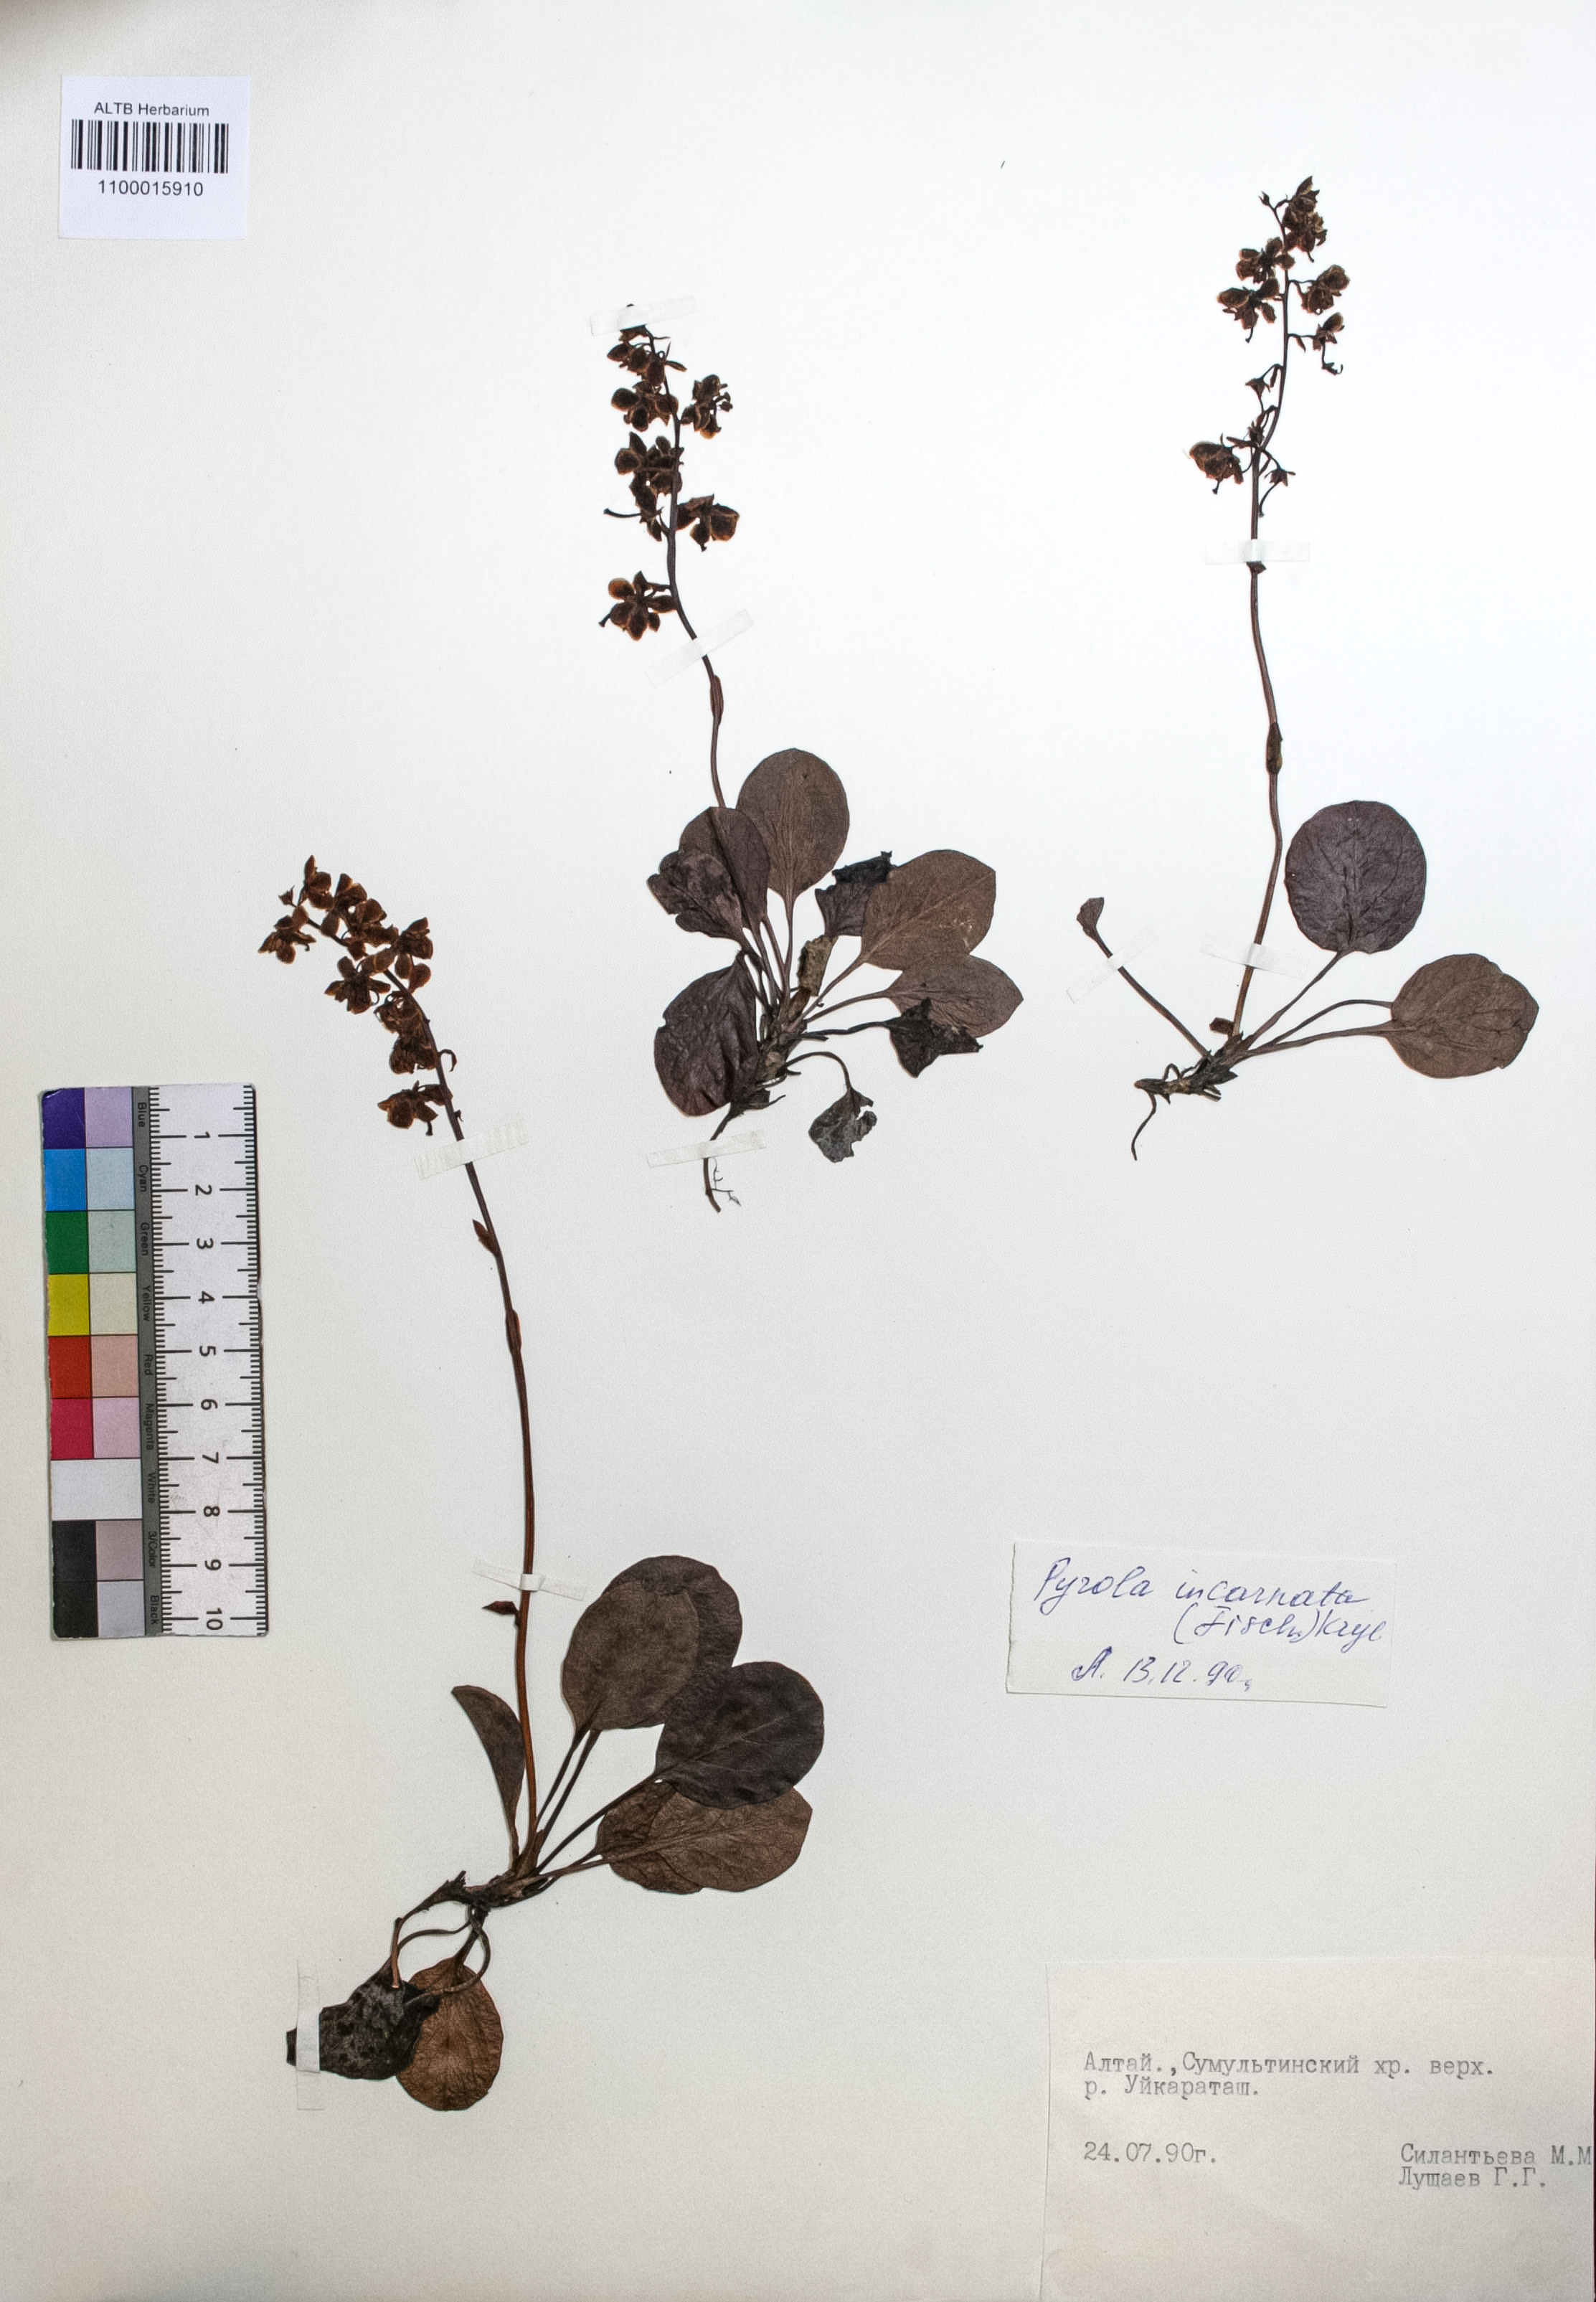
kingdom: Plantae
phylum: Tracheophyta
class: Magnoliopsida
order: Ericales
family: Ericaceae
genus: Pyrola
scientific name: Pyrola asarifolia
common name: Bog wintergreen
